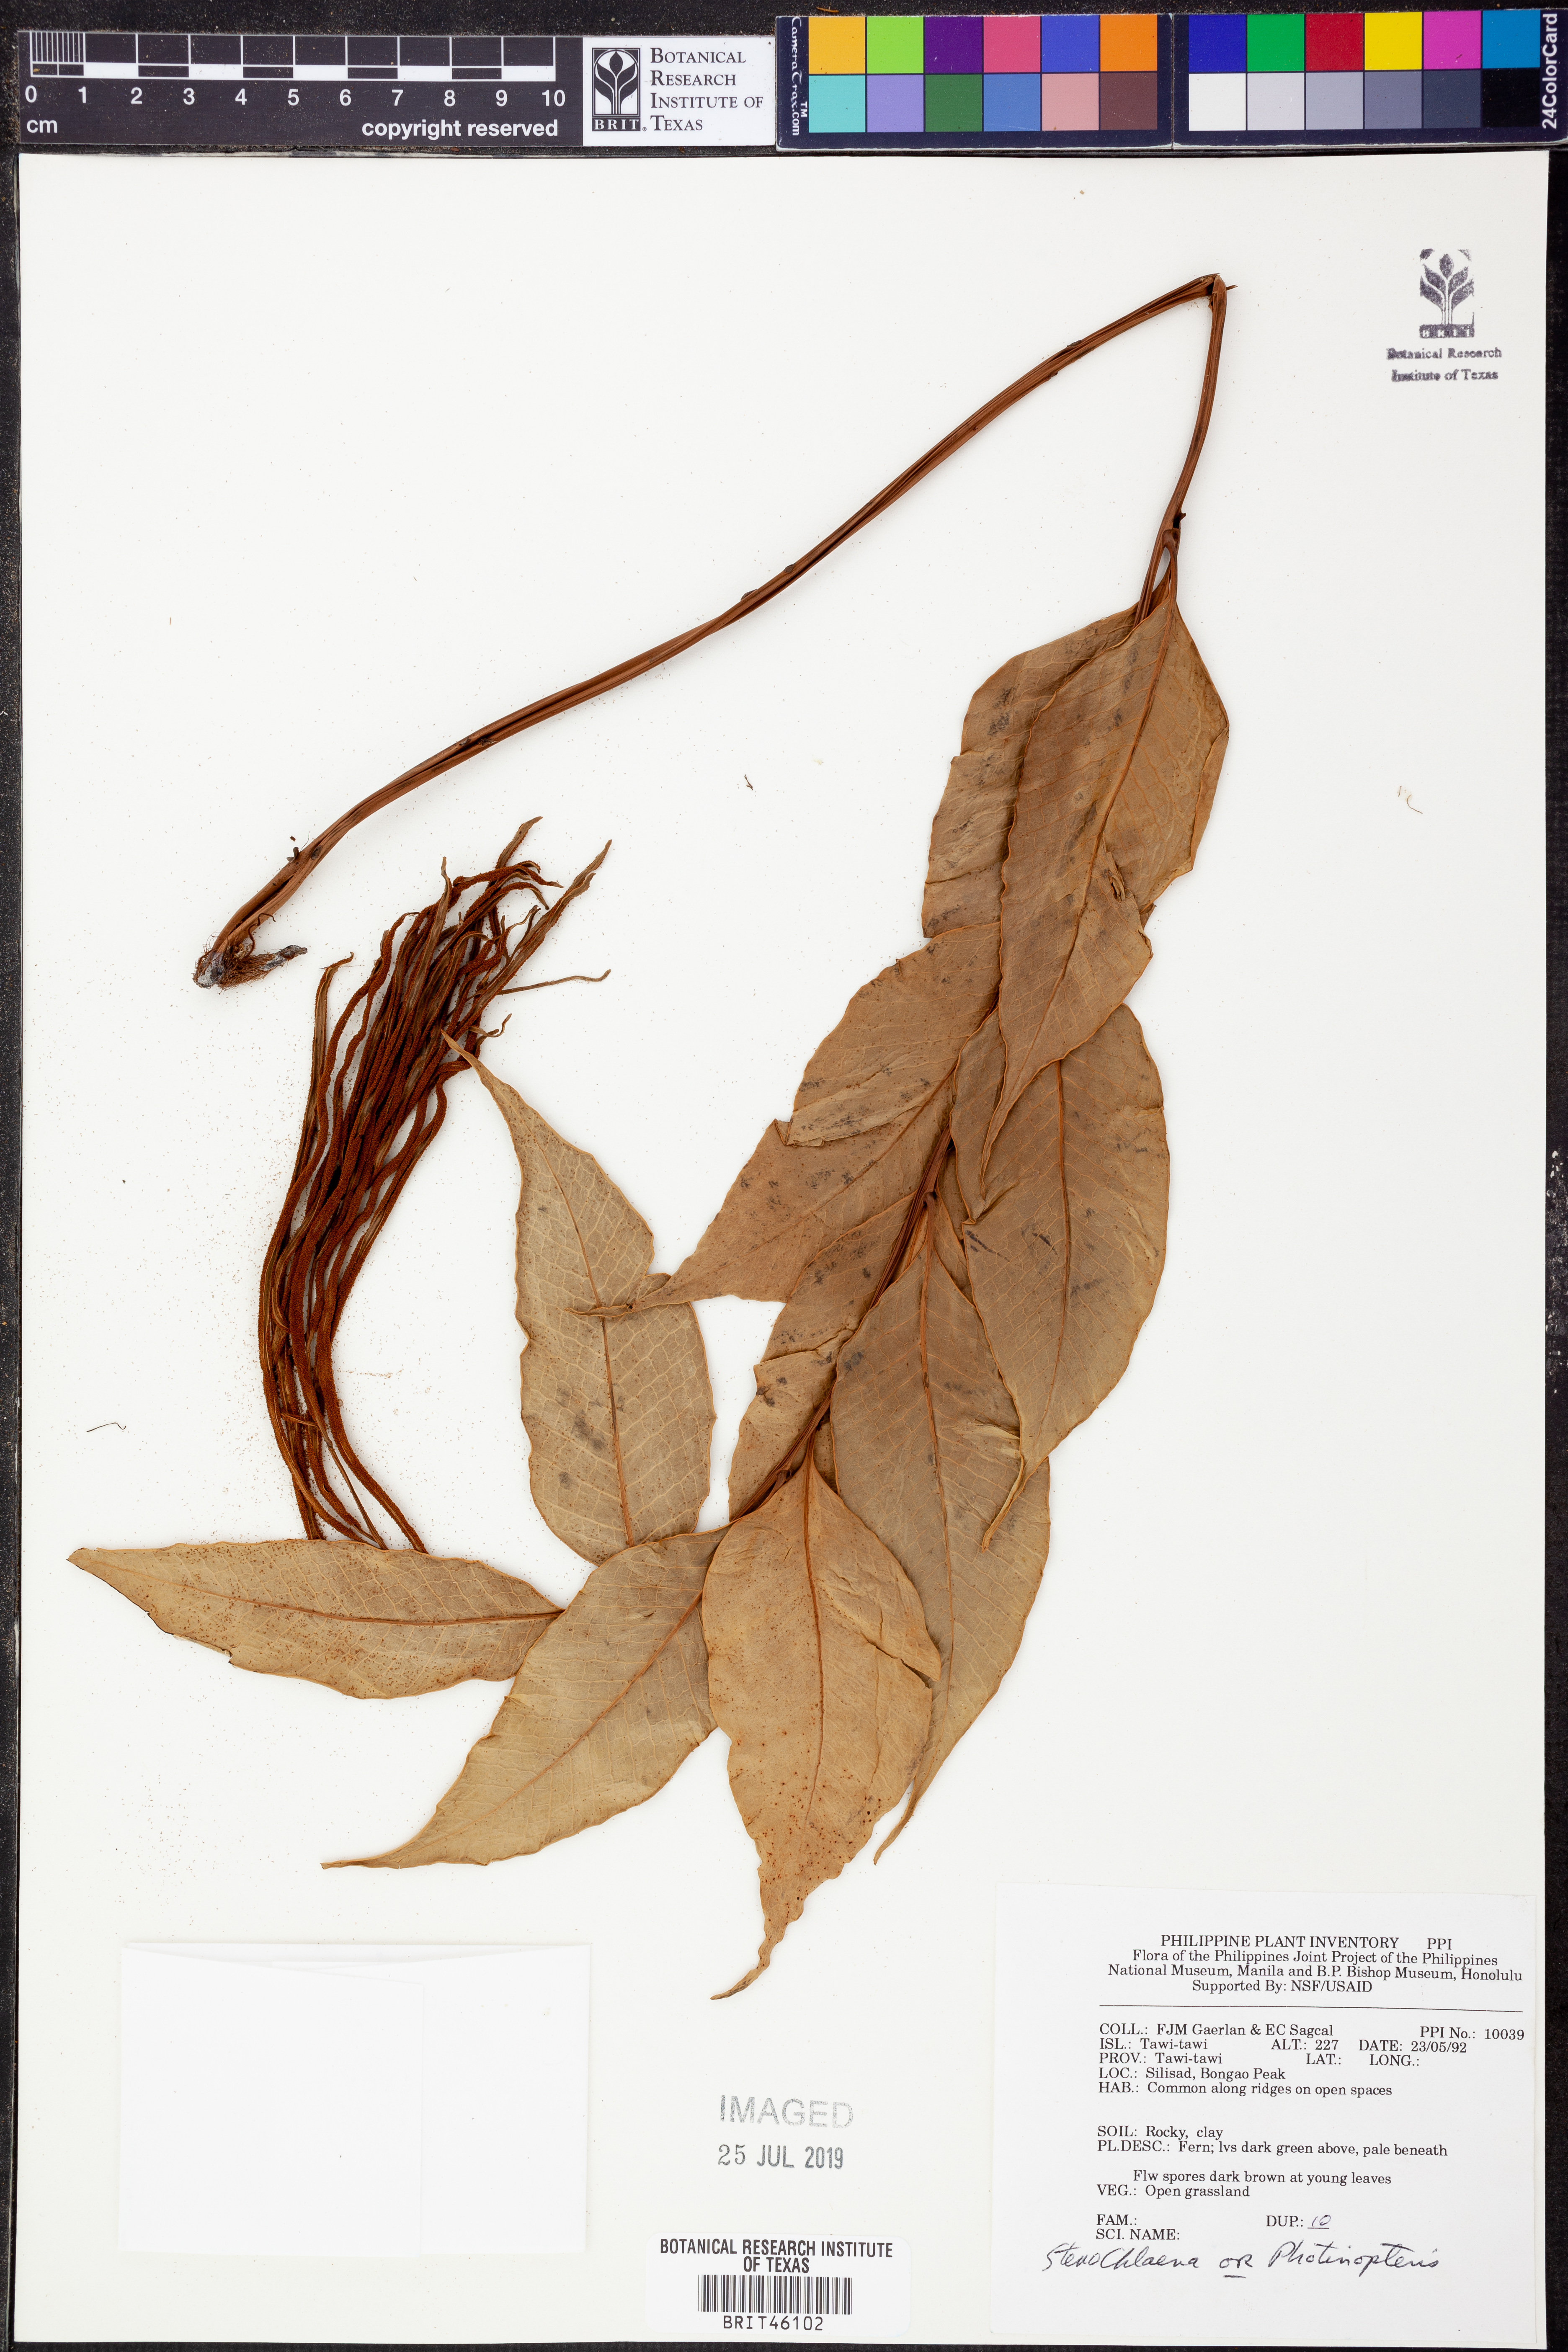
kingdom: Plantae
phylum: Tracheophyta
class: Polypodiopsida
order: Polypodiales
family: Blechnaceae
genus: Stenochlaena
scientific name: Stenochlaena
